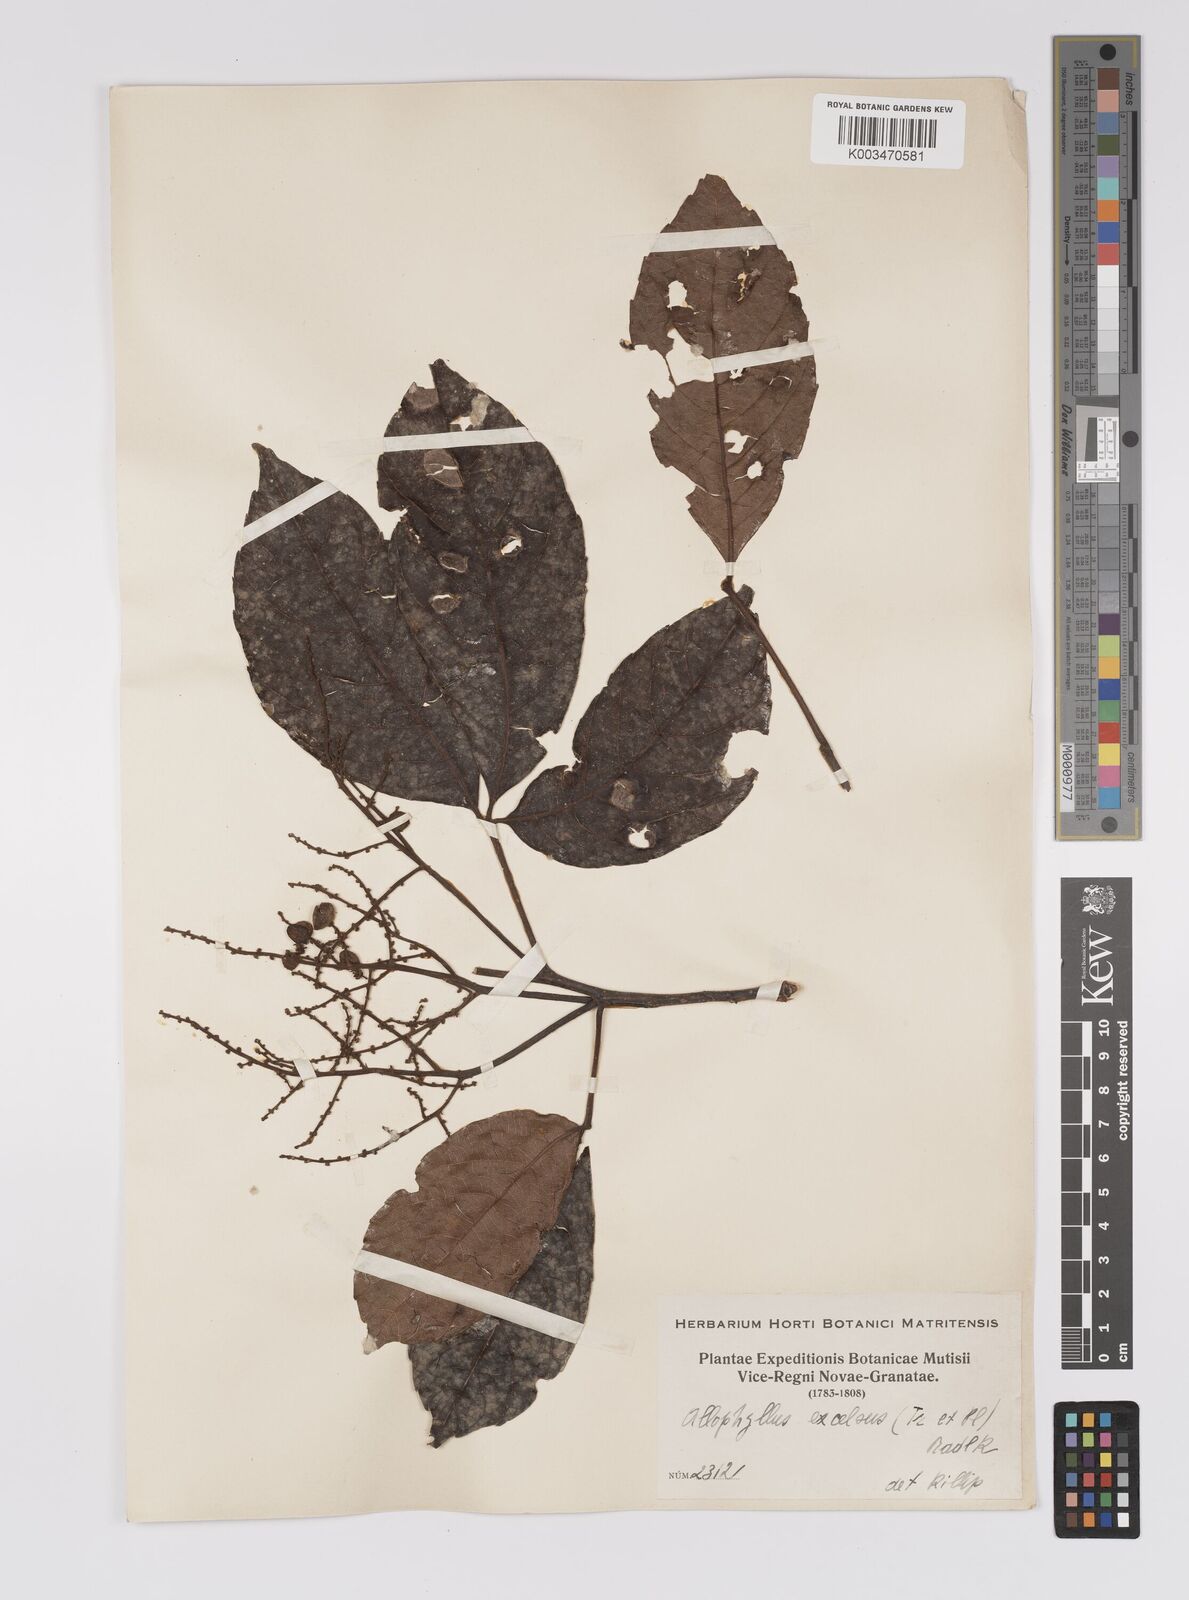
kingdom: Plantae
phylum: Tracheophyta
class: Magnoliopsida
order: Sapindales
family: Sapindaceae
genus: Allophylus
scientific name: Allophylus excelsus
